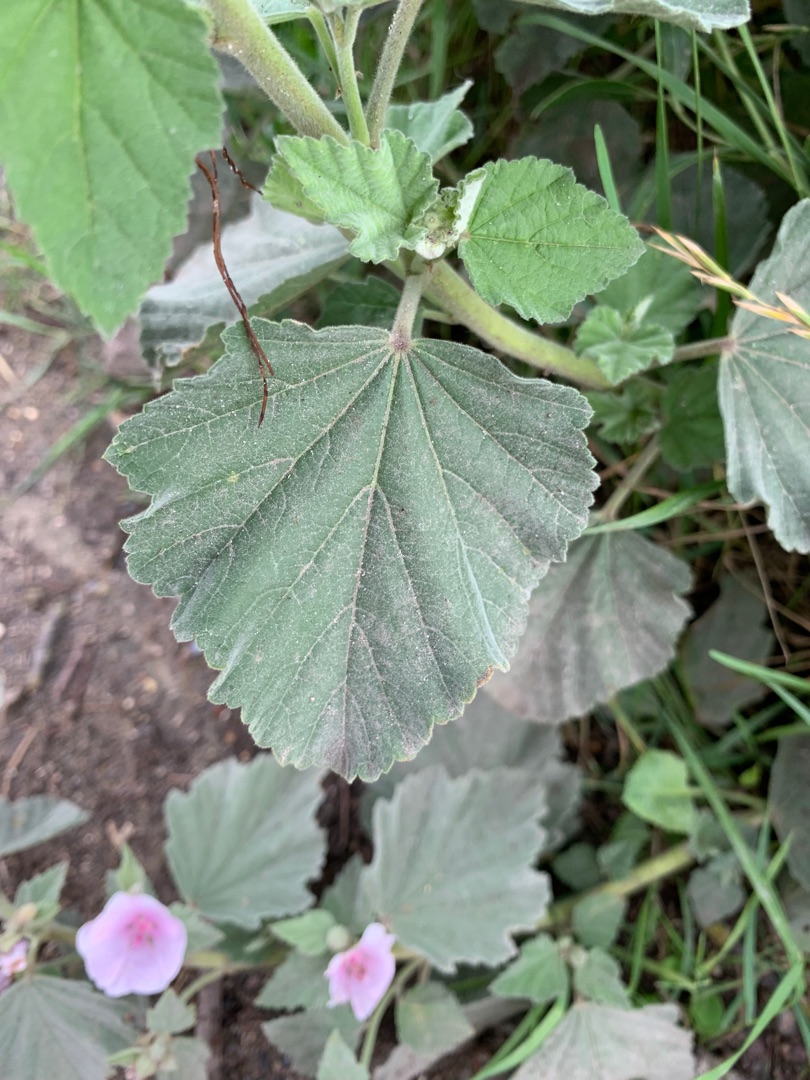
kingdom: Plantae
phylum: Tracheophyta
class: Magnoliopsida
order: Malvales
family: Malvaceae
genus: Althaea
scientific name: Althaea officinalis
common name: Lægestokrose
